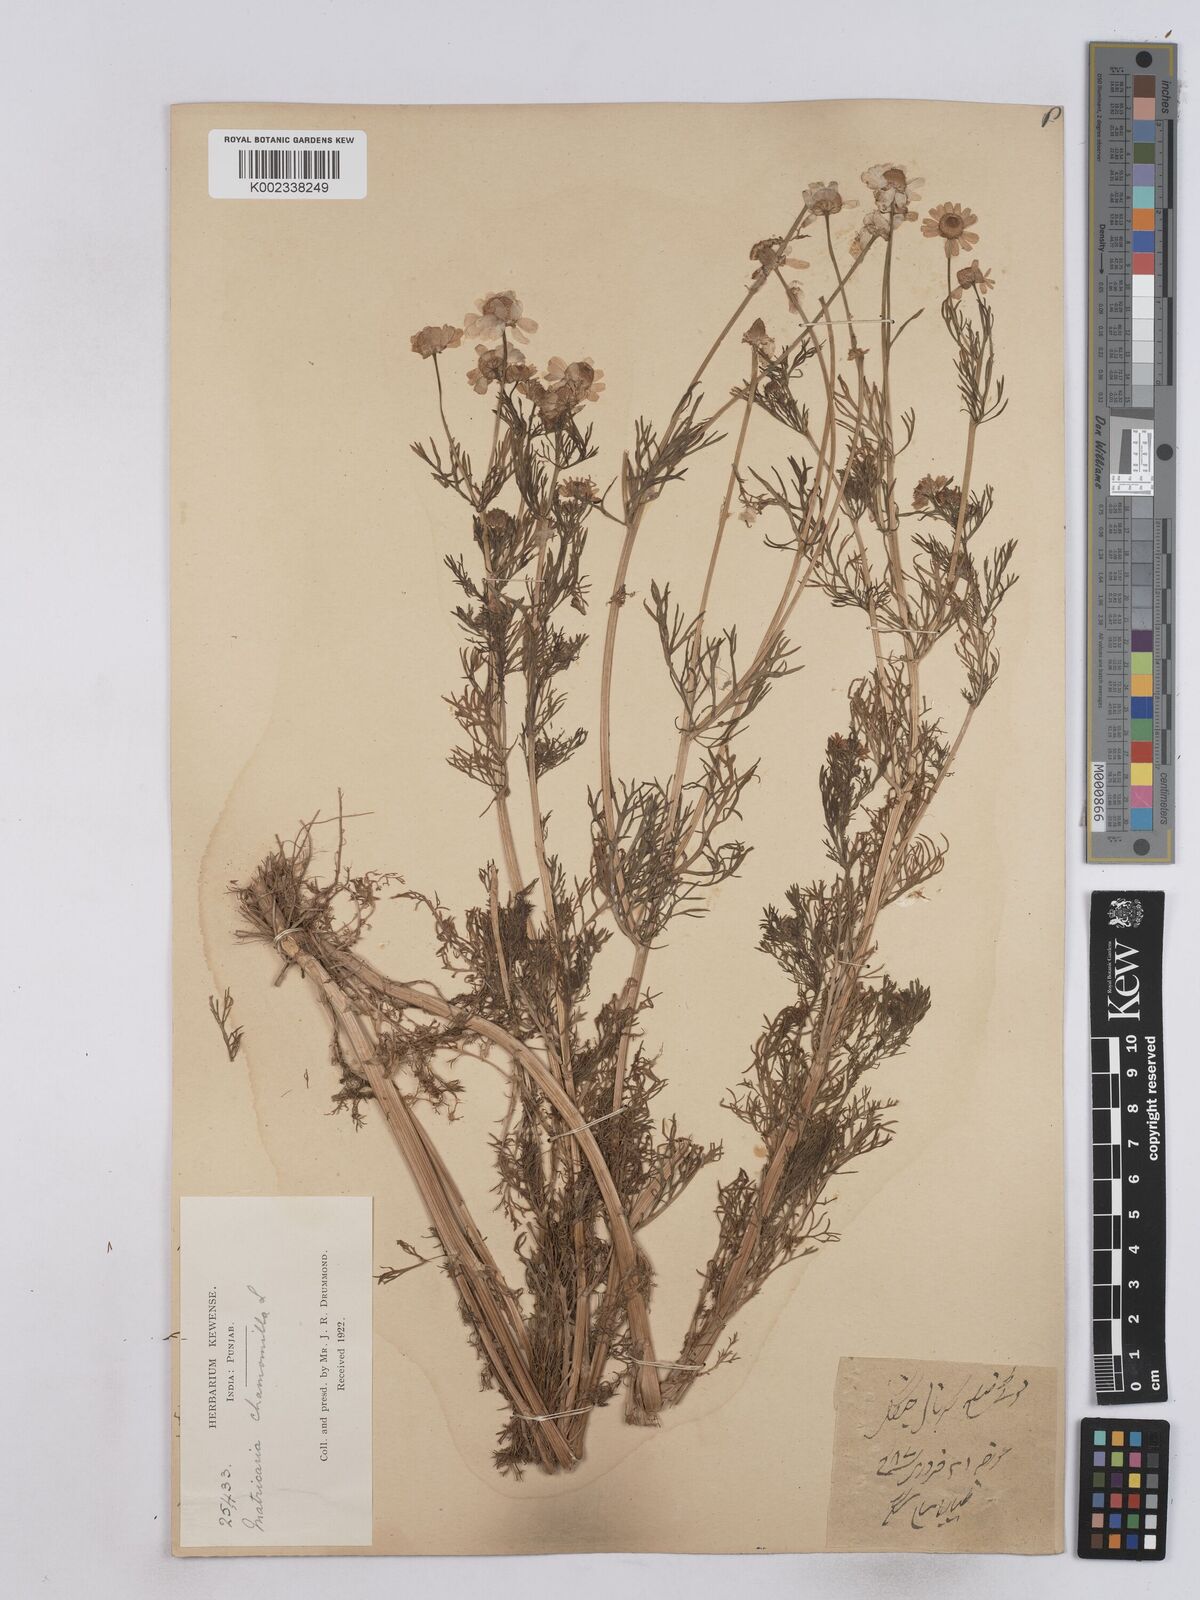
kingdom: Plantae
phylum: Tracheophyta
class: Magnoliopsida
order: Asterales
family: Asteraceae
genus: Matricaria
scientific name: Matricaria chamomilla
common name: Scented mayweed
